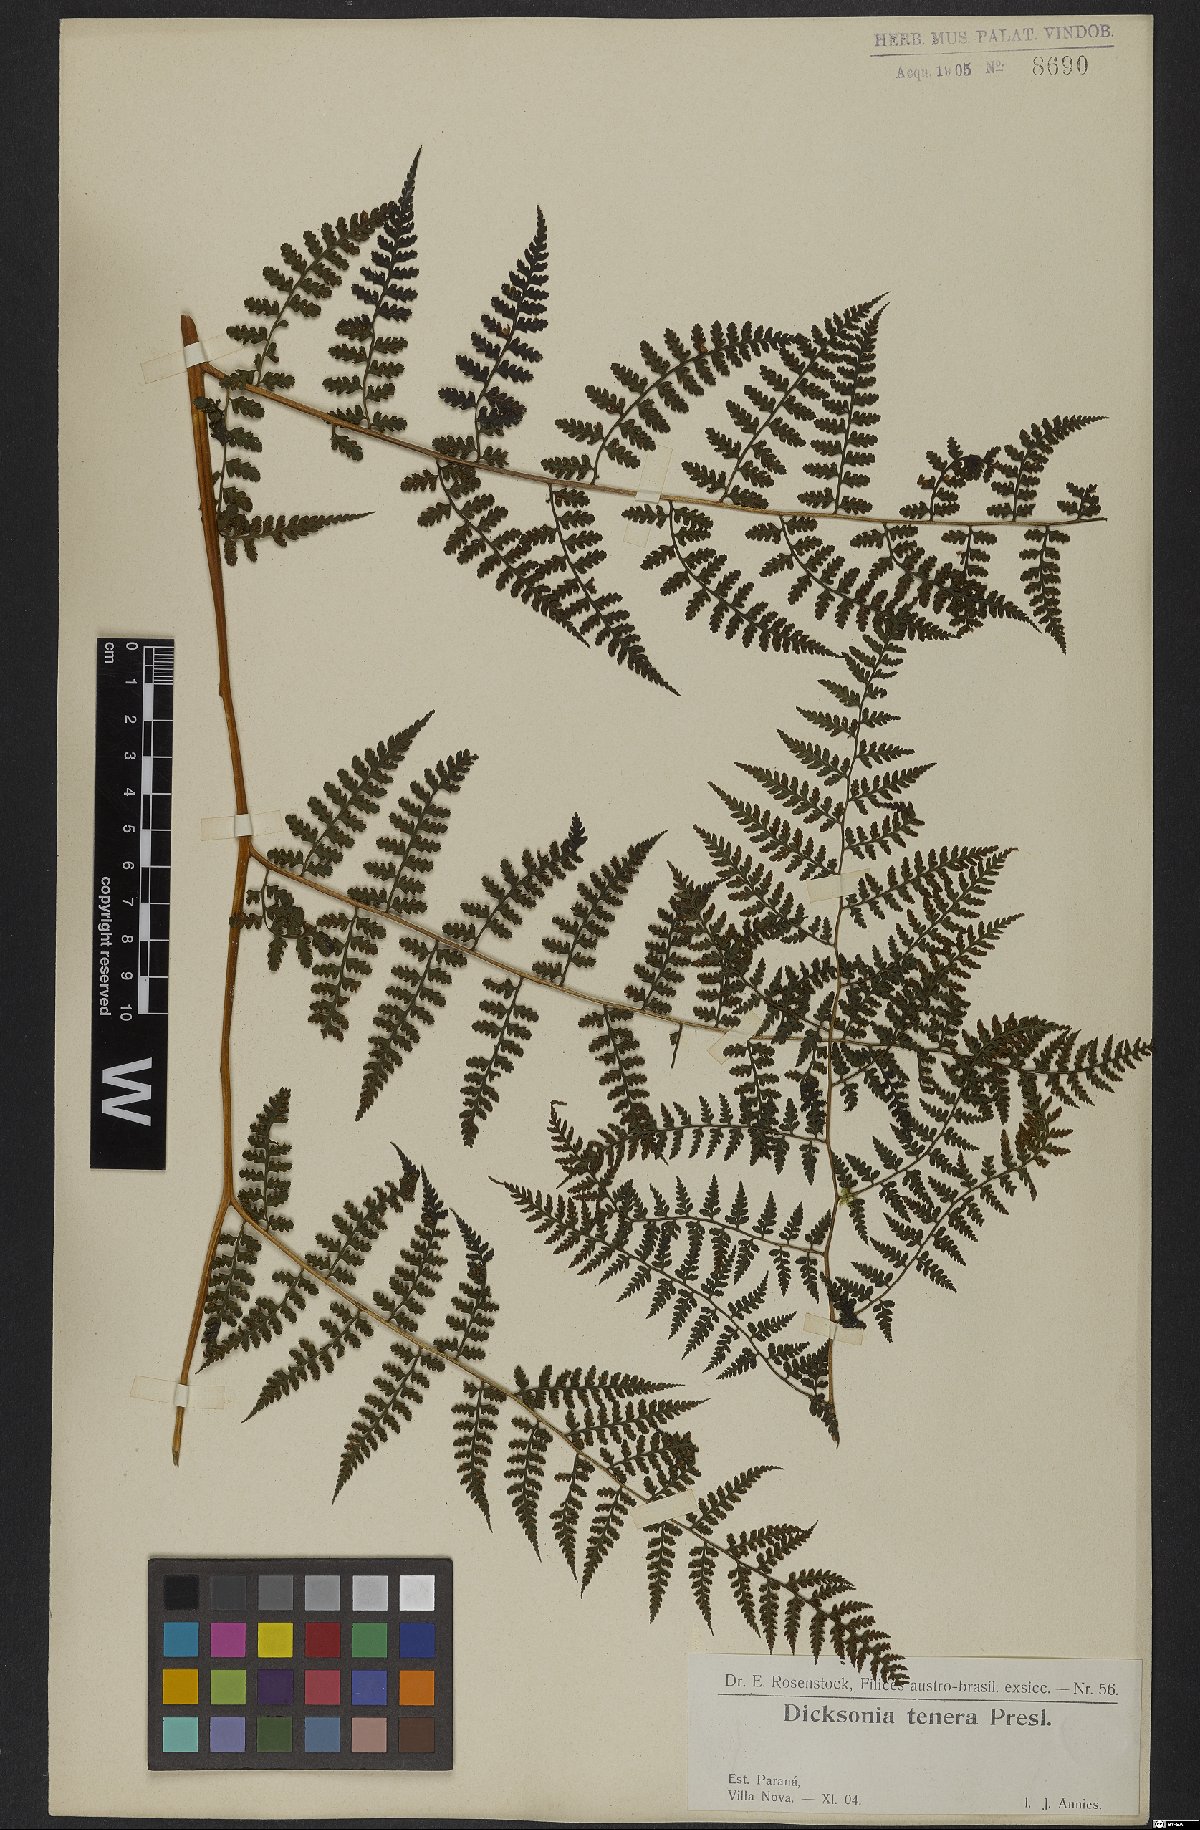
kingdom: Plantae
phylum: Tracheophyta
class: Polypodiopsida
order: Polypodiales
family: Dennstaedtiaceae
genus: Mucura
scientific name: Mucura globulifera
